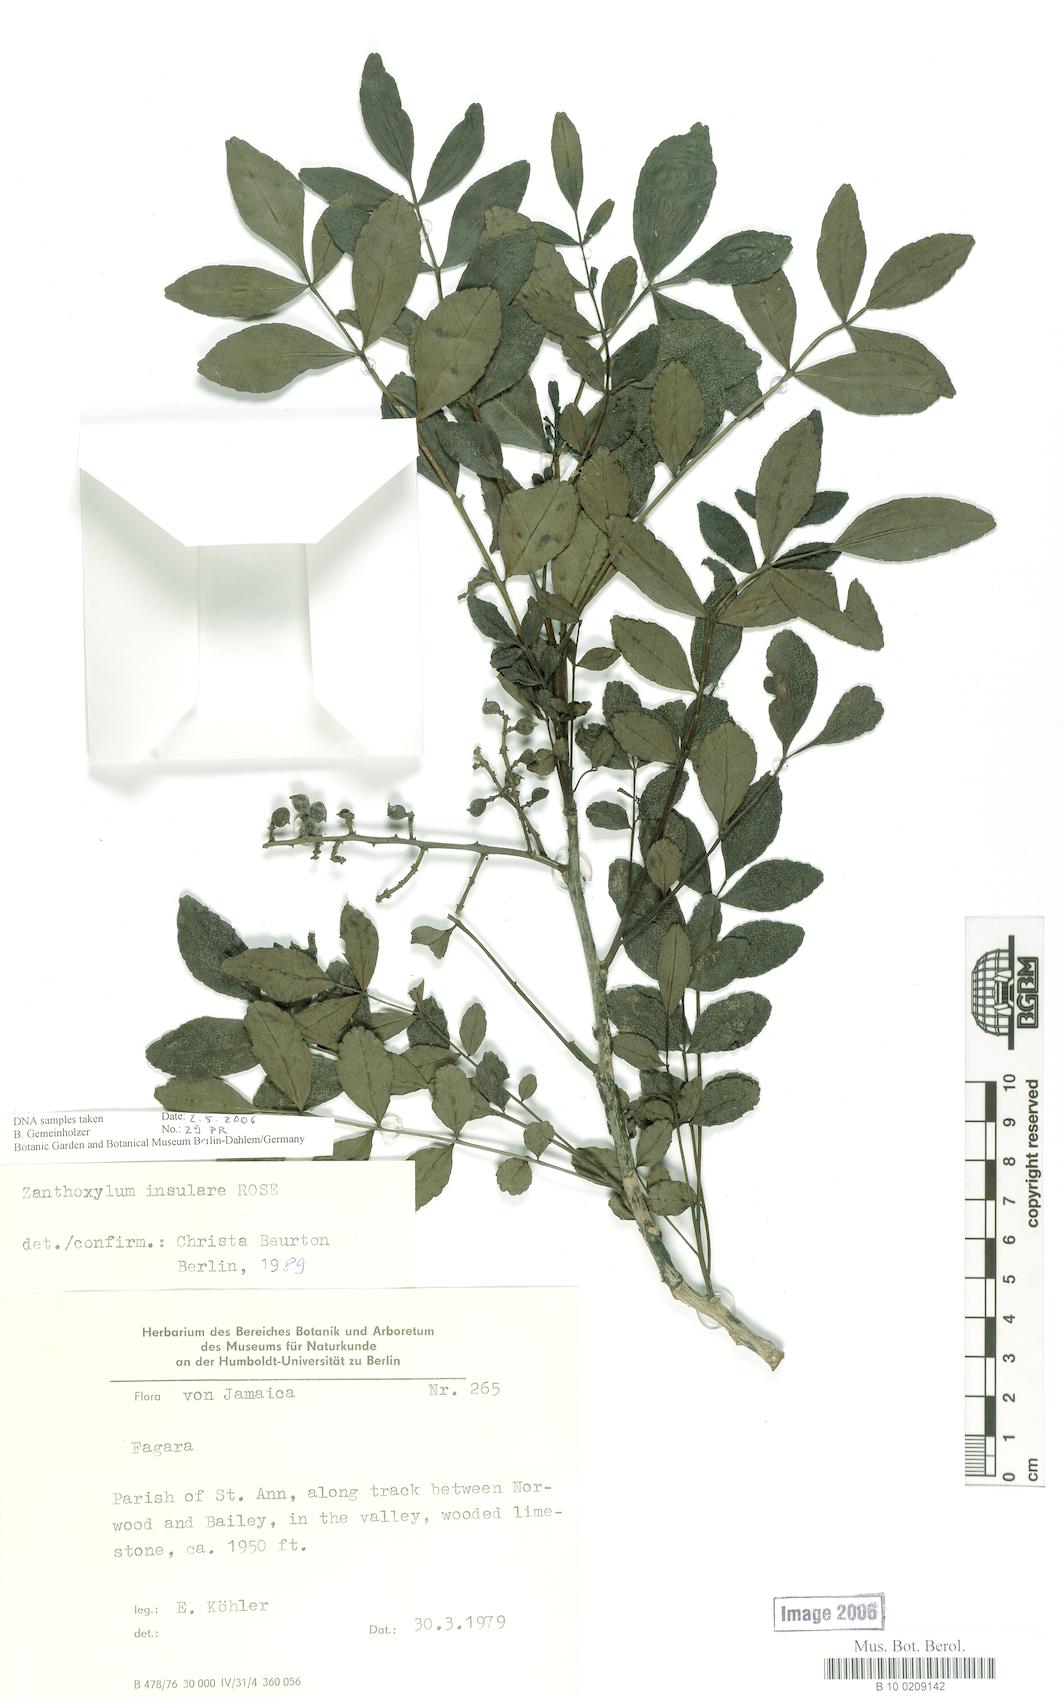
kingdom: Plantae
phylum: Tracheophyta
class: Magnoliopsida
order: Sapindales
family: Rutaceae
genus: Zanthoxylum
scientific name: Zanthoxylum insulare
